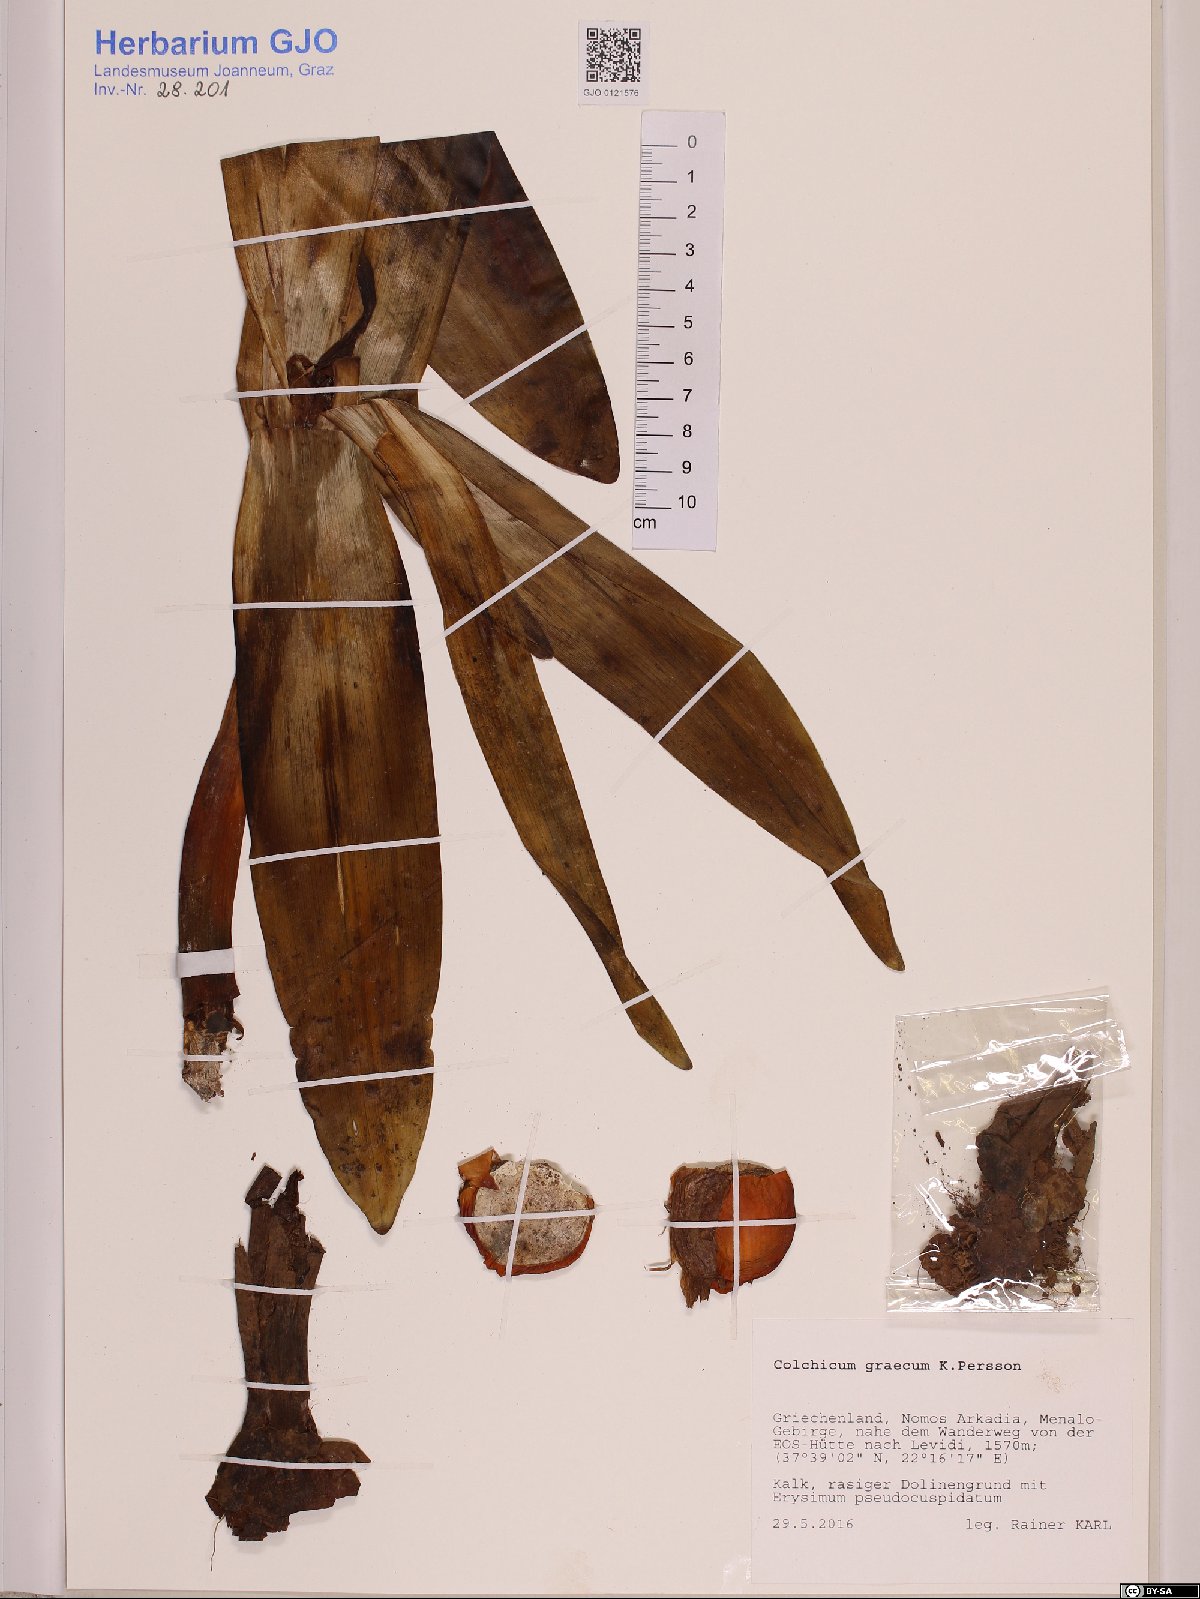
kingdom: Plantae
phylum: Tracheophyta
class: Liliopsida
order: Liliales
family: Colchicaceae
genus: Colchicum
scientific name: Colchicum graecum
